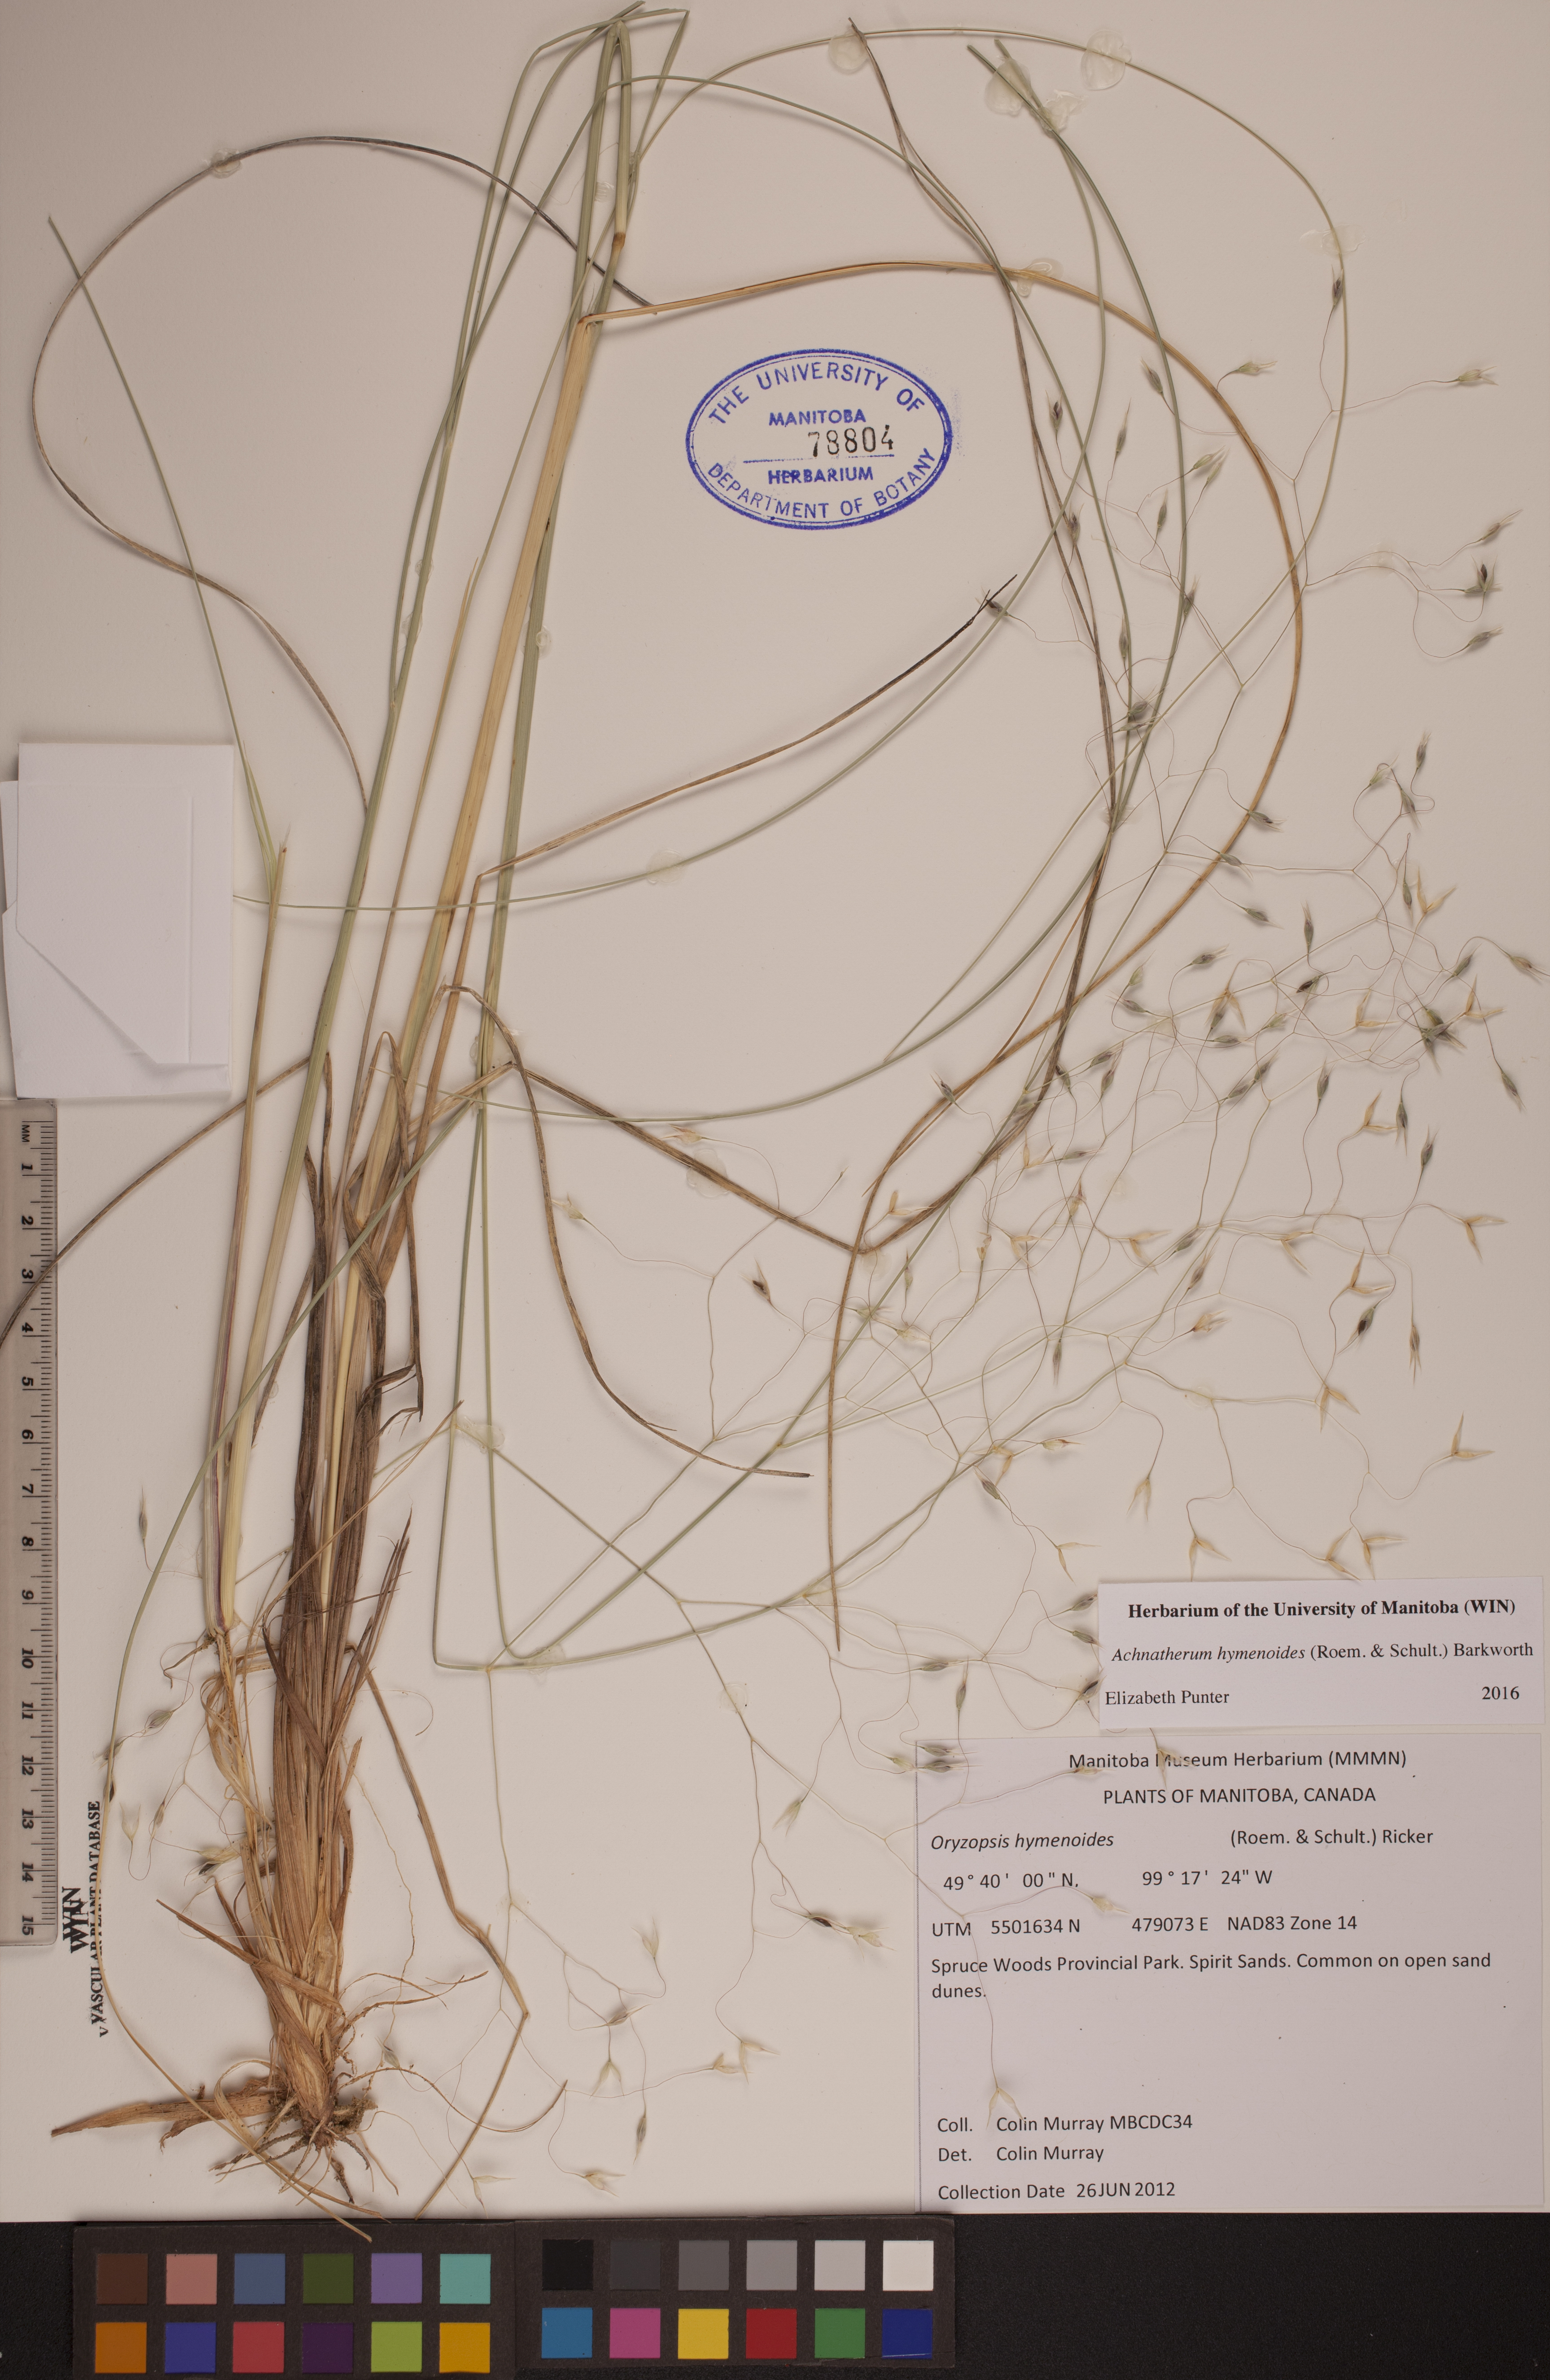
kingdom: Plantae
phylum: Tracheophyta
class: Liliopsida
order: Poales
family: Poaceae
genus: Eriocoma
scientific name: Eriocoma hymenoides
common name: Indian mountain ricegrass
